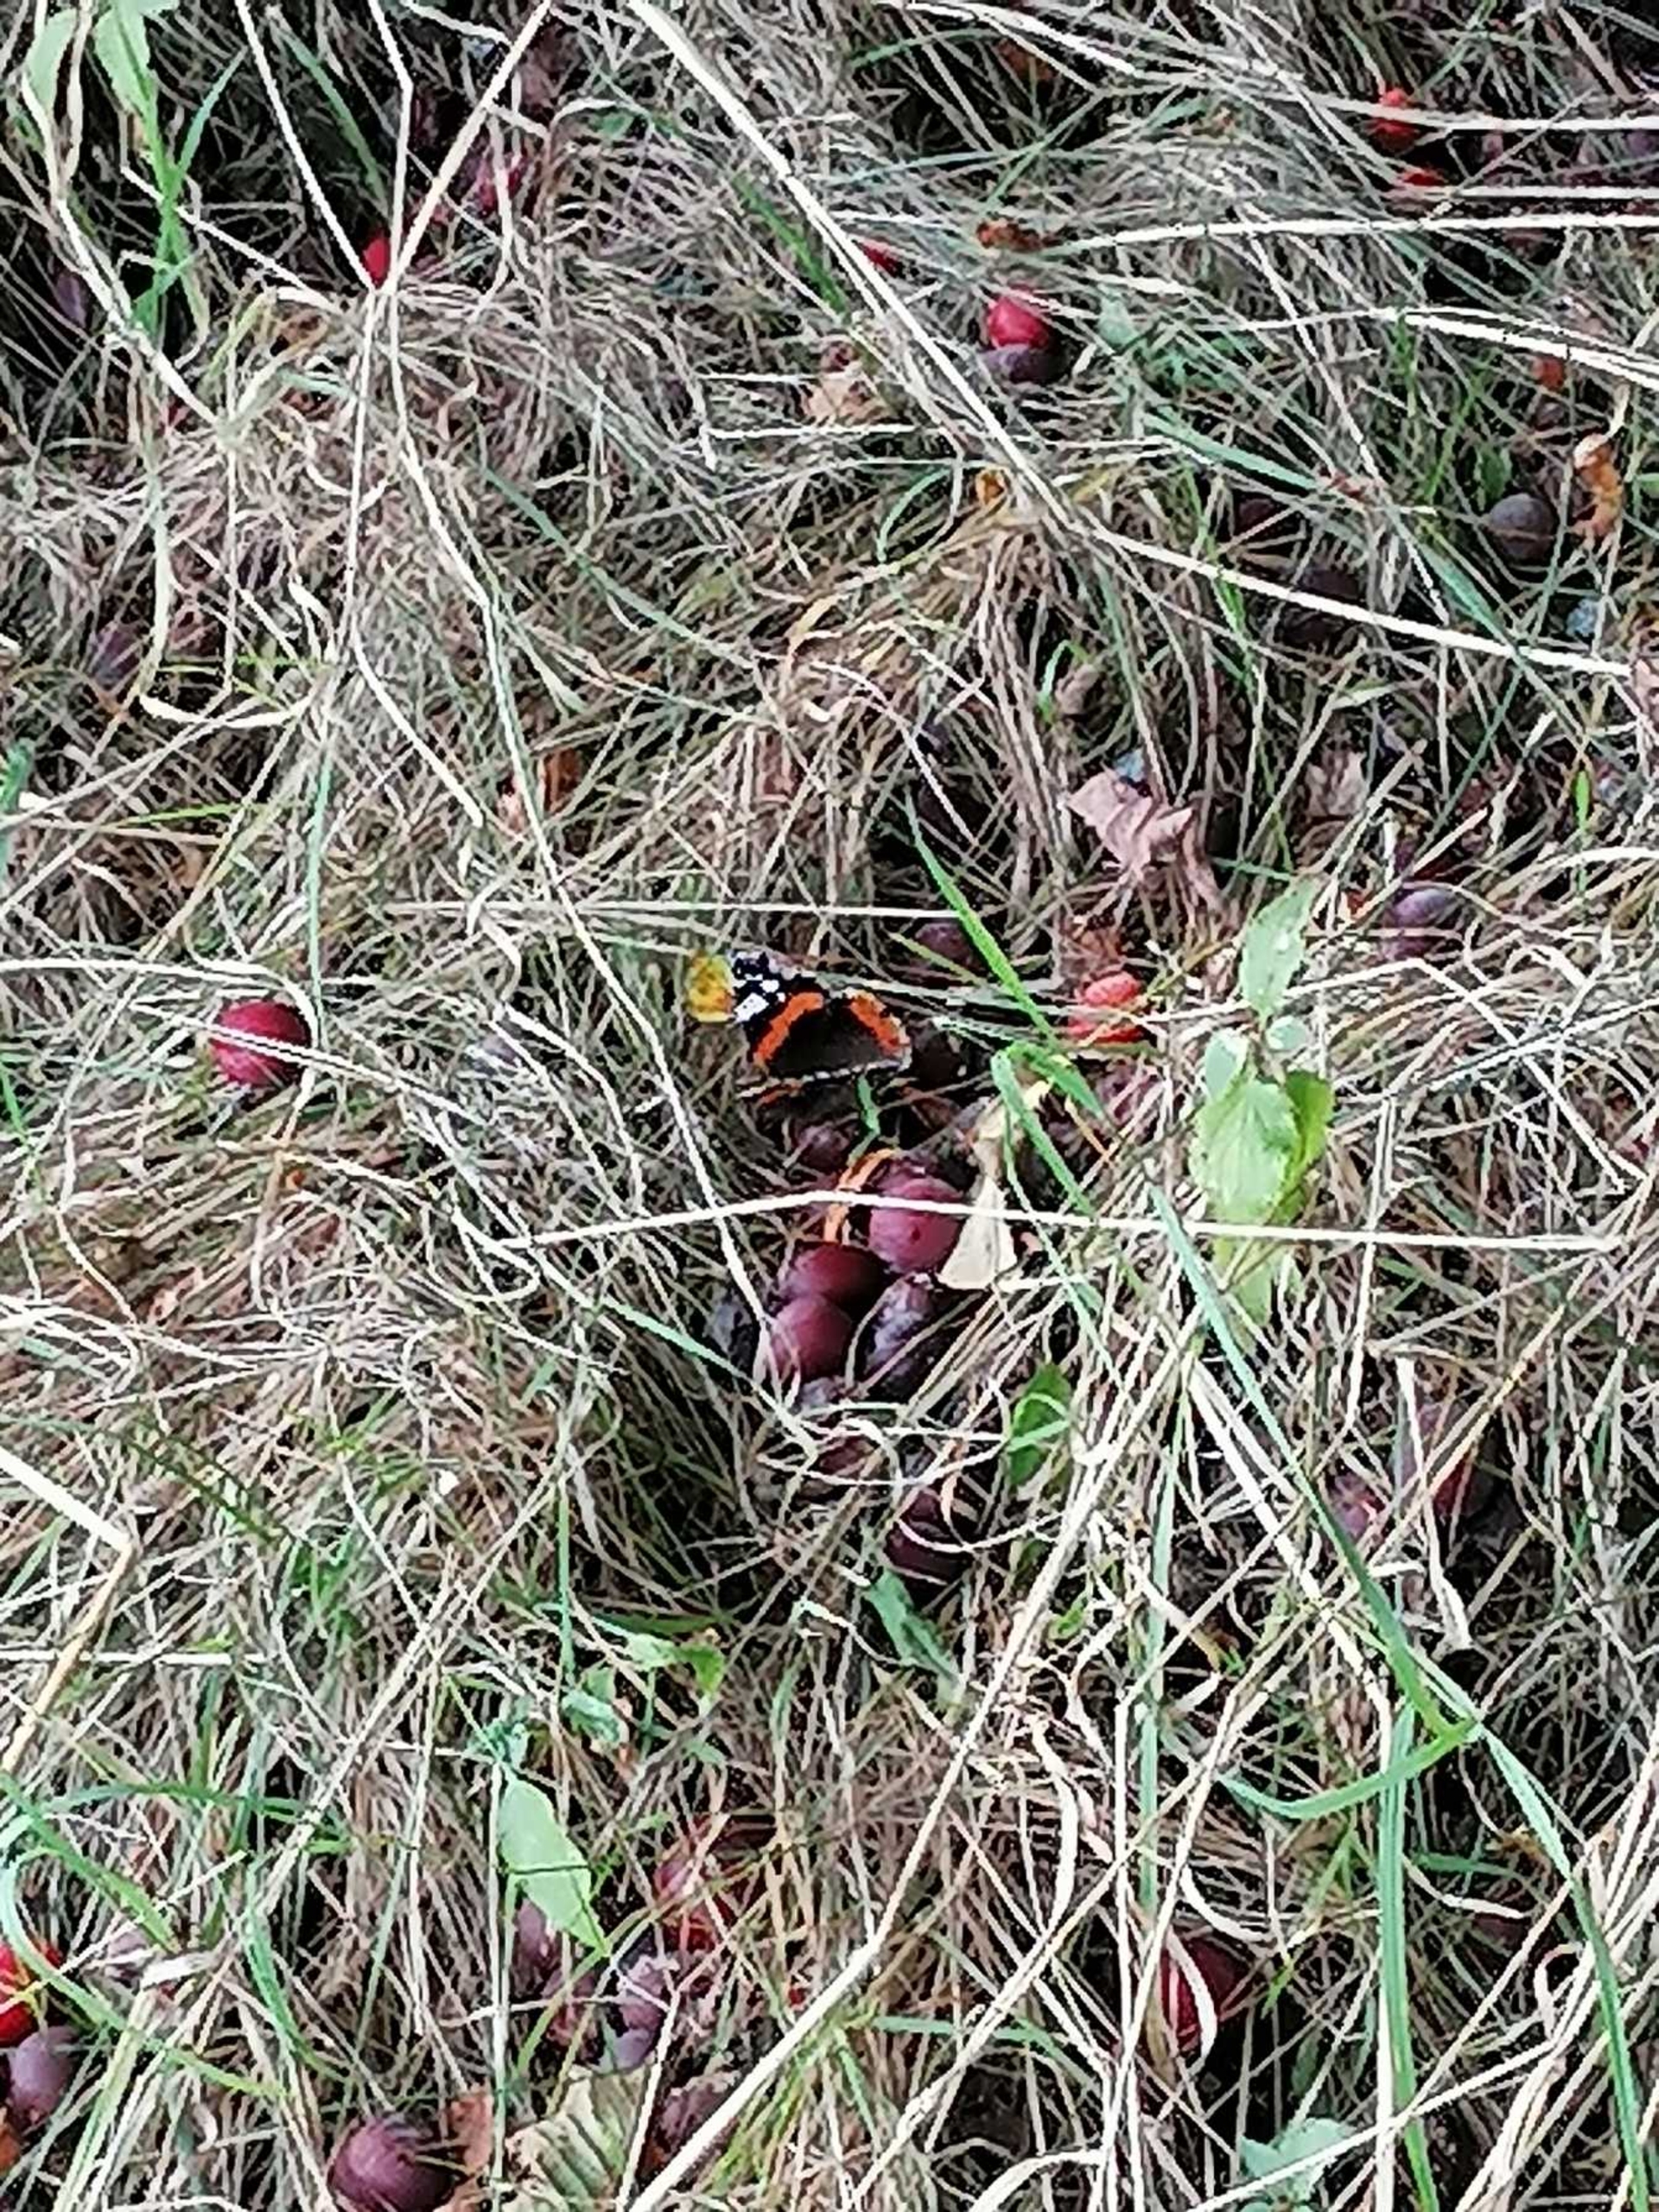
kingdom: Animalia
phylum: Arthropoda
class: Insecta
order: Lepidoptera
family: Nymphalidae
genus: Vanessa
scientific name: Vanessa atalanta
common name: Admiral
